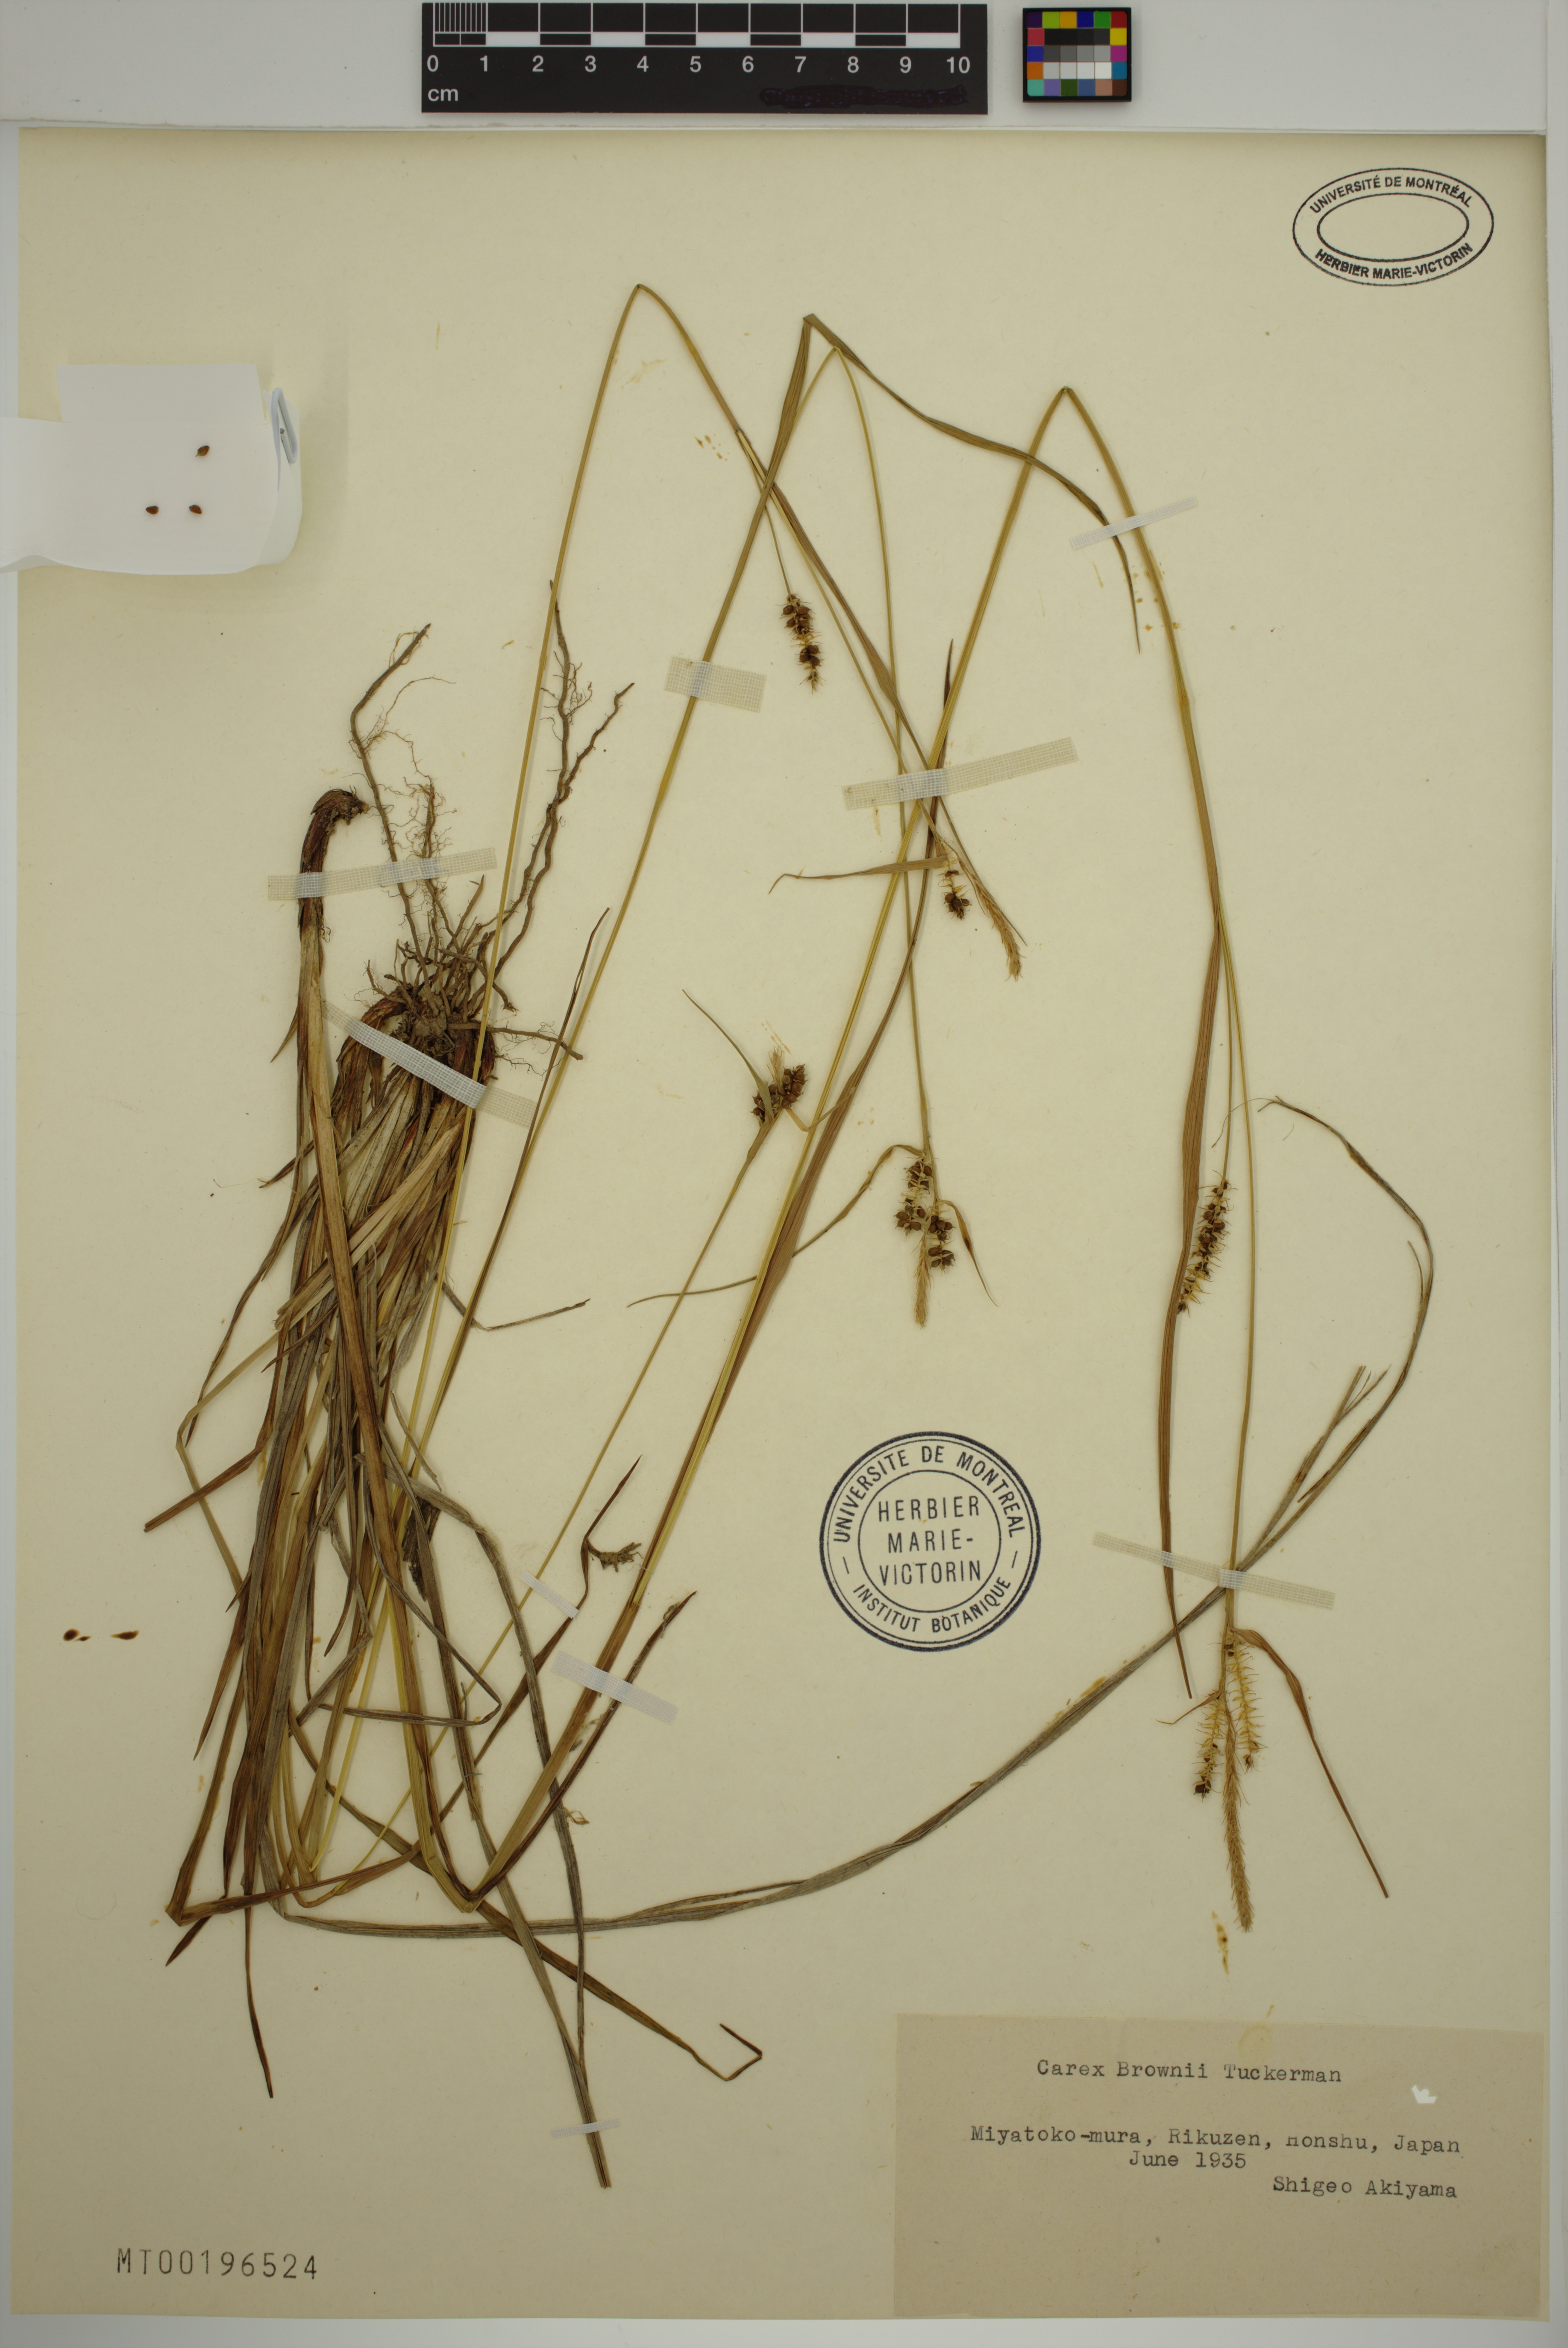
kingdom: Plantae
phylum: Tracheophyta
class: Liliopsida
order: Poales
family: Cyperaceae
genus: Carex
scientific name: Carex brownii
